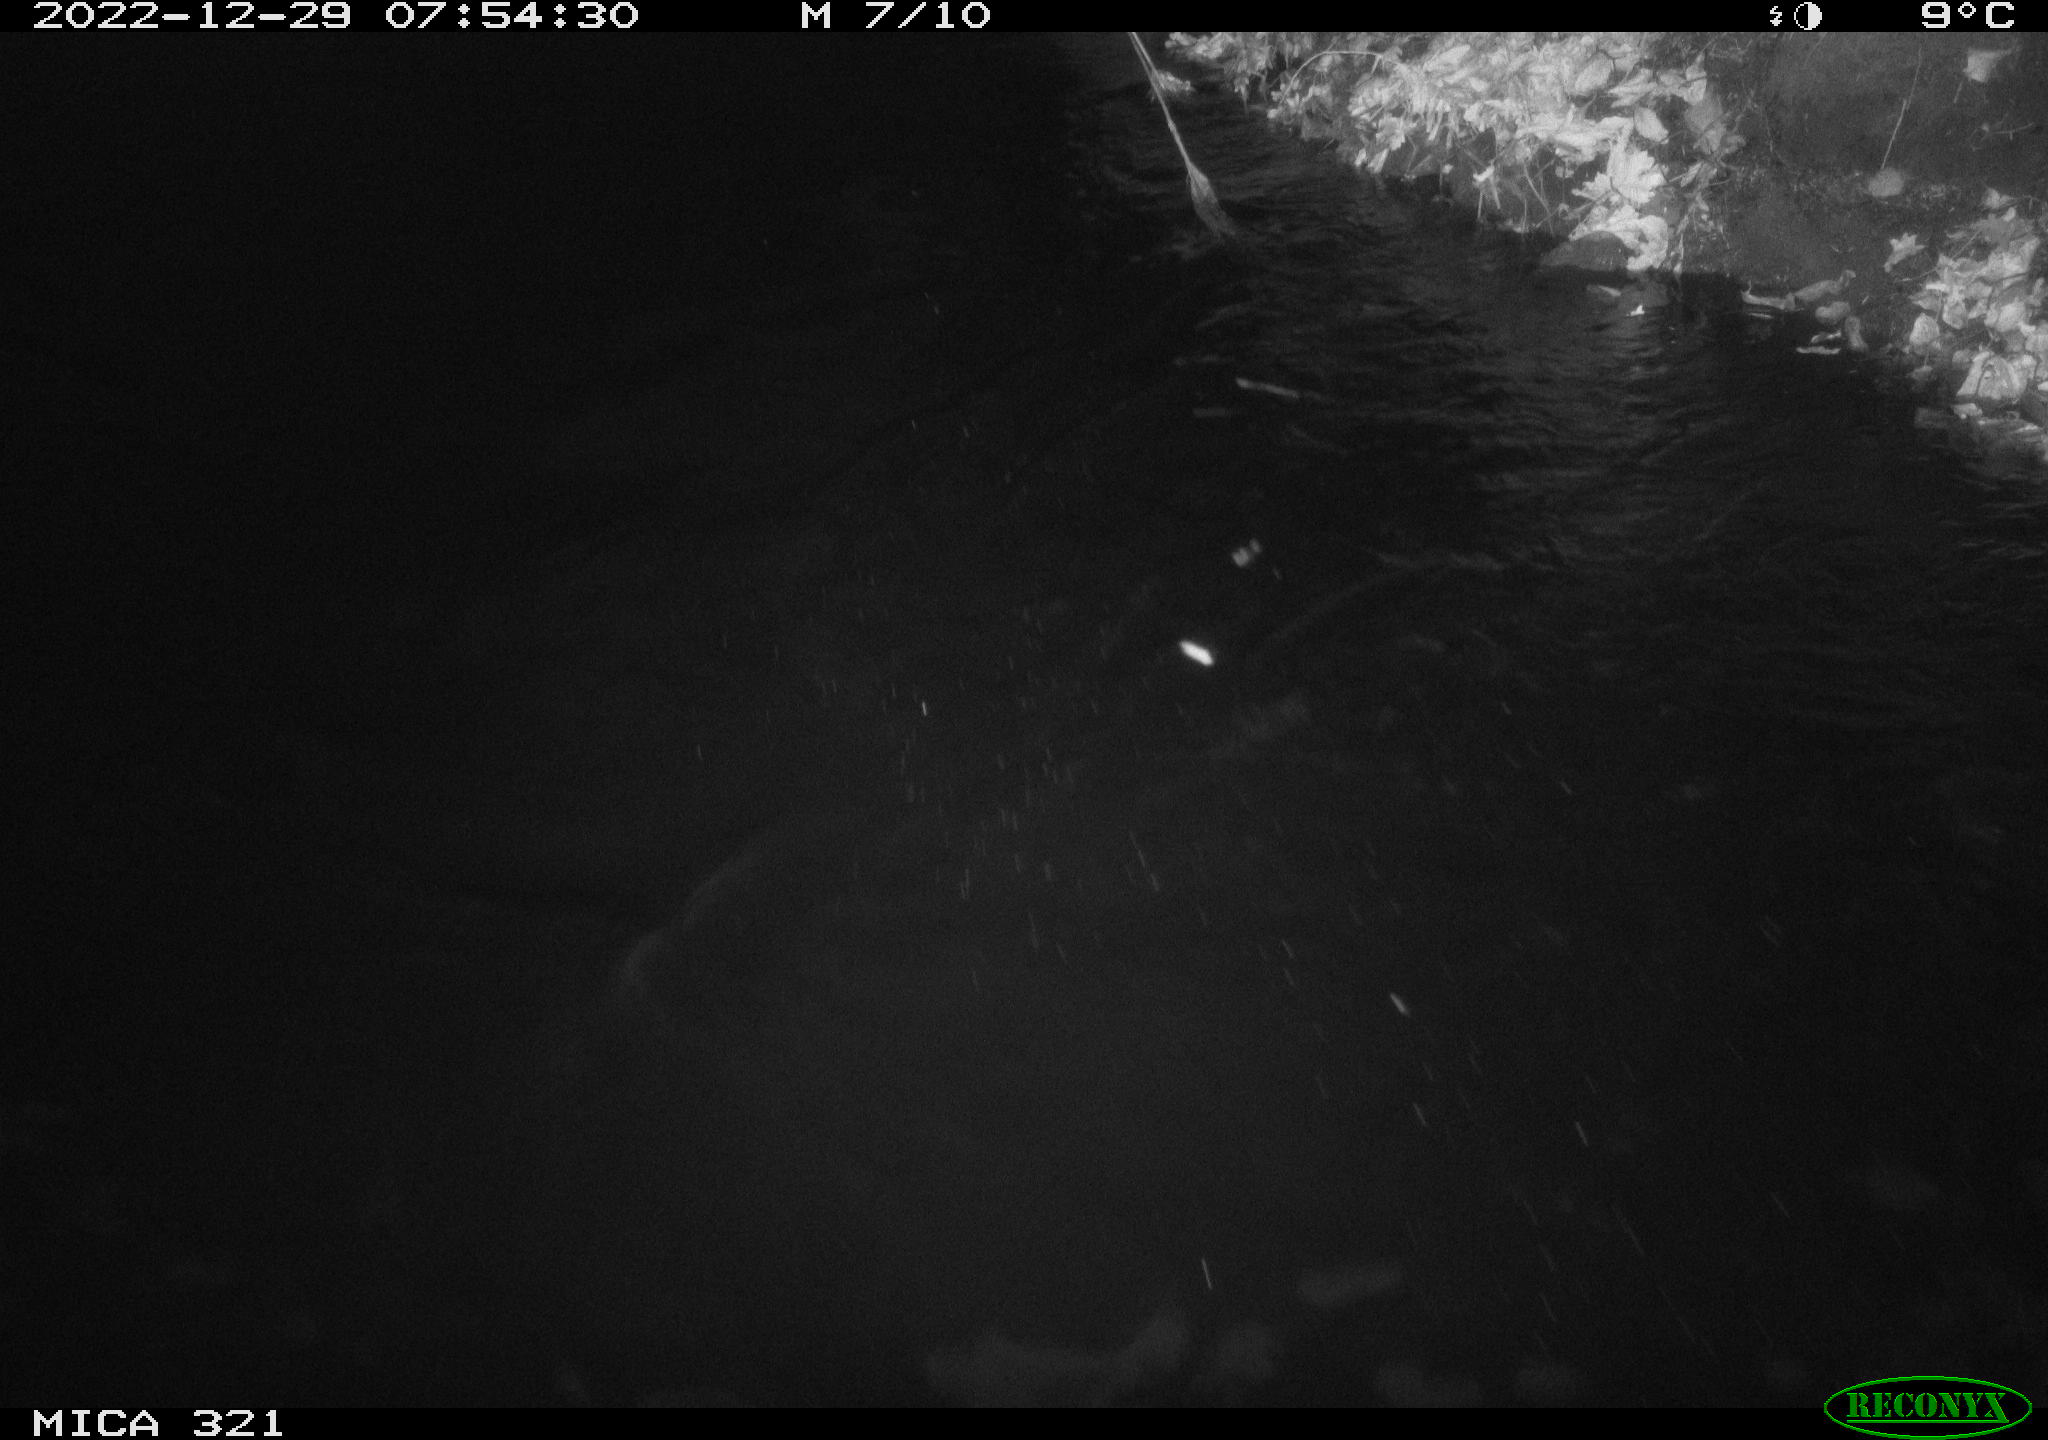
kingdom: Animalia
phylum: Chordata
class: Aves
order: Anseriformes
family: Anatidae
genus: Anas
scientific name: Anas
